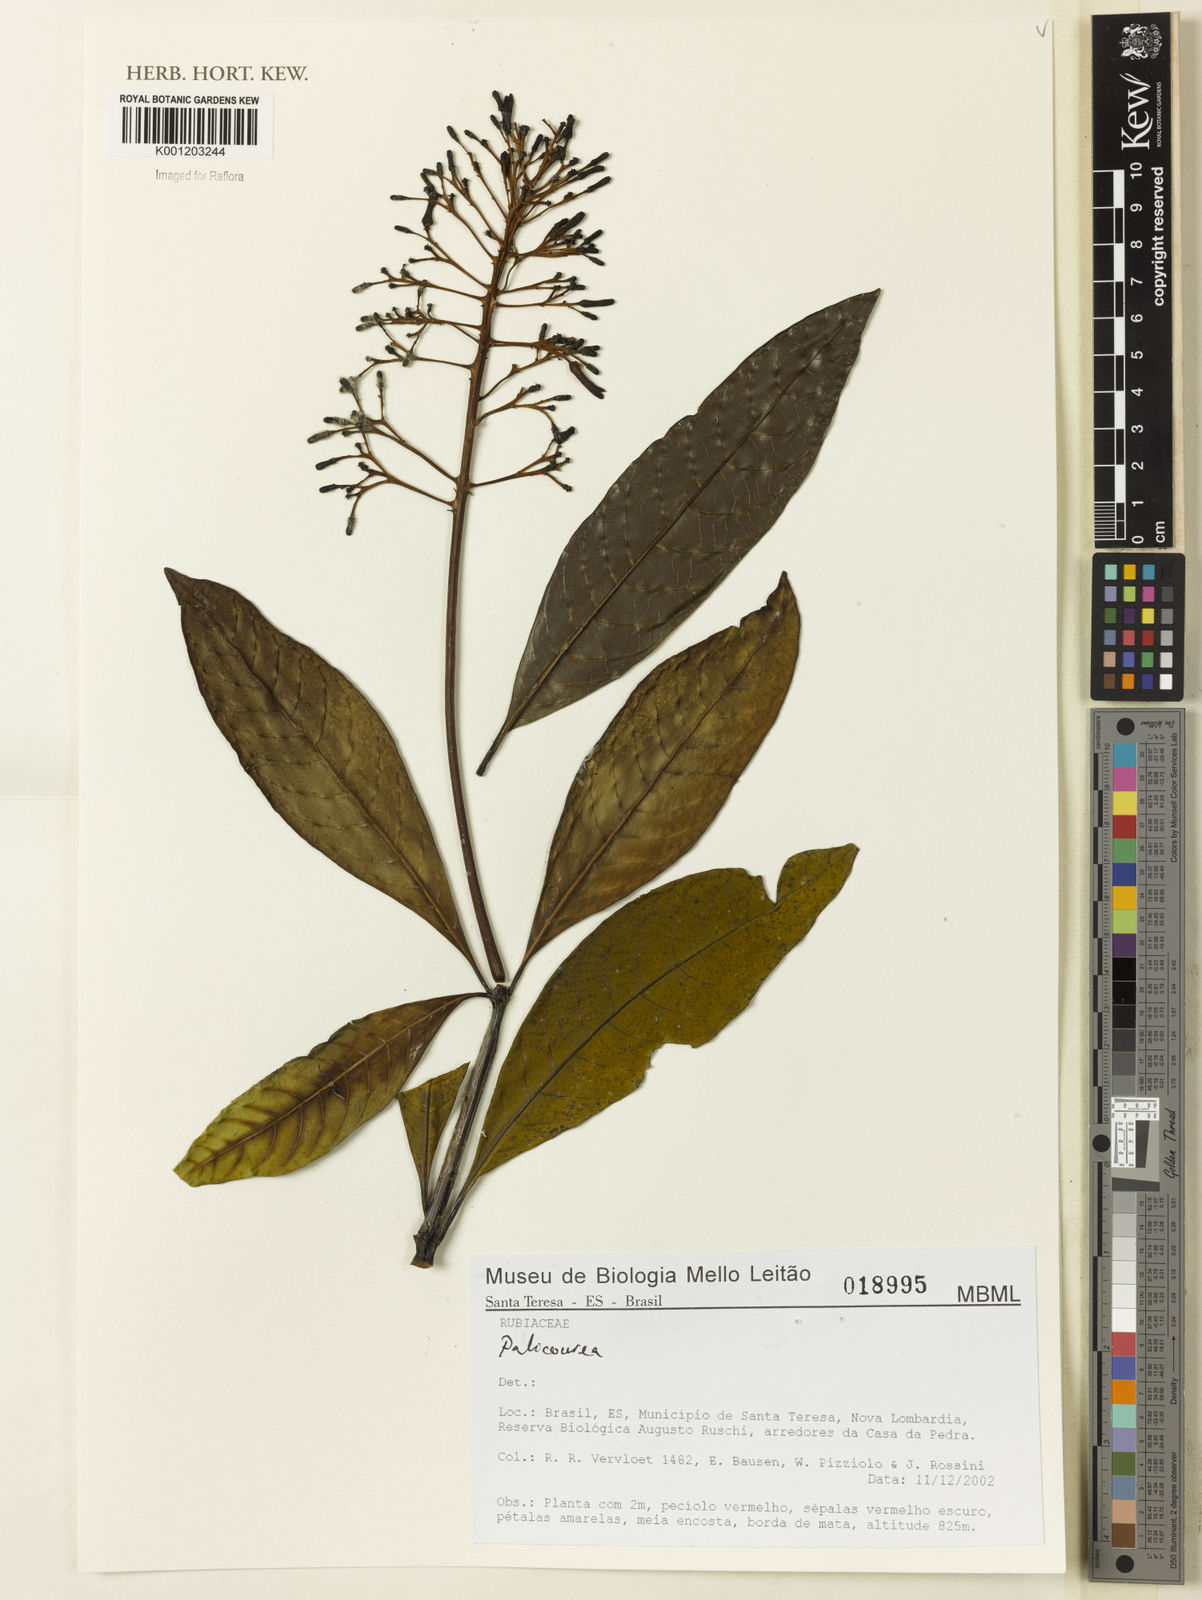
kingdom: Plantae
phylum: Tracheophyta
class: Magnoliopsida
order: Gentianales
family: Rubiaceae
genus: Palicourea
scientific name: Palicourea
